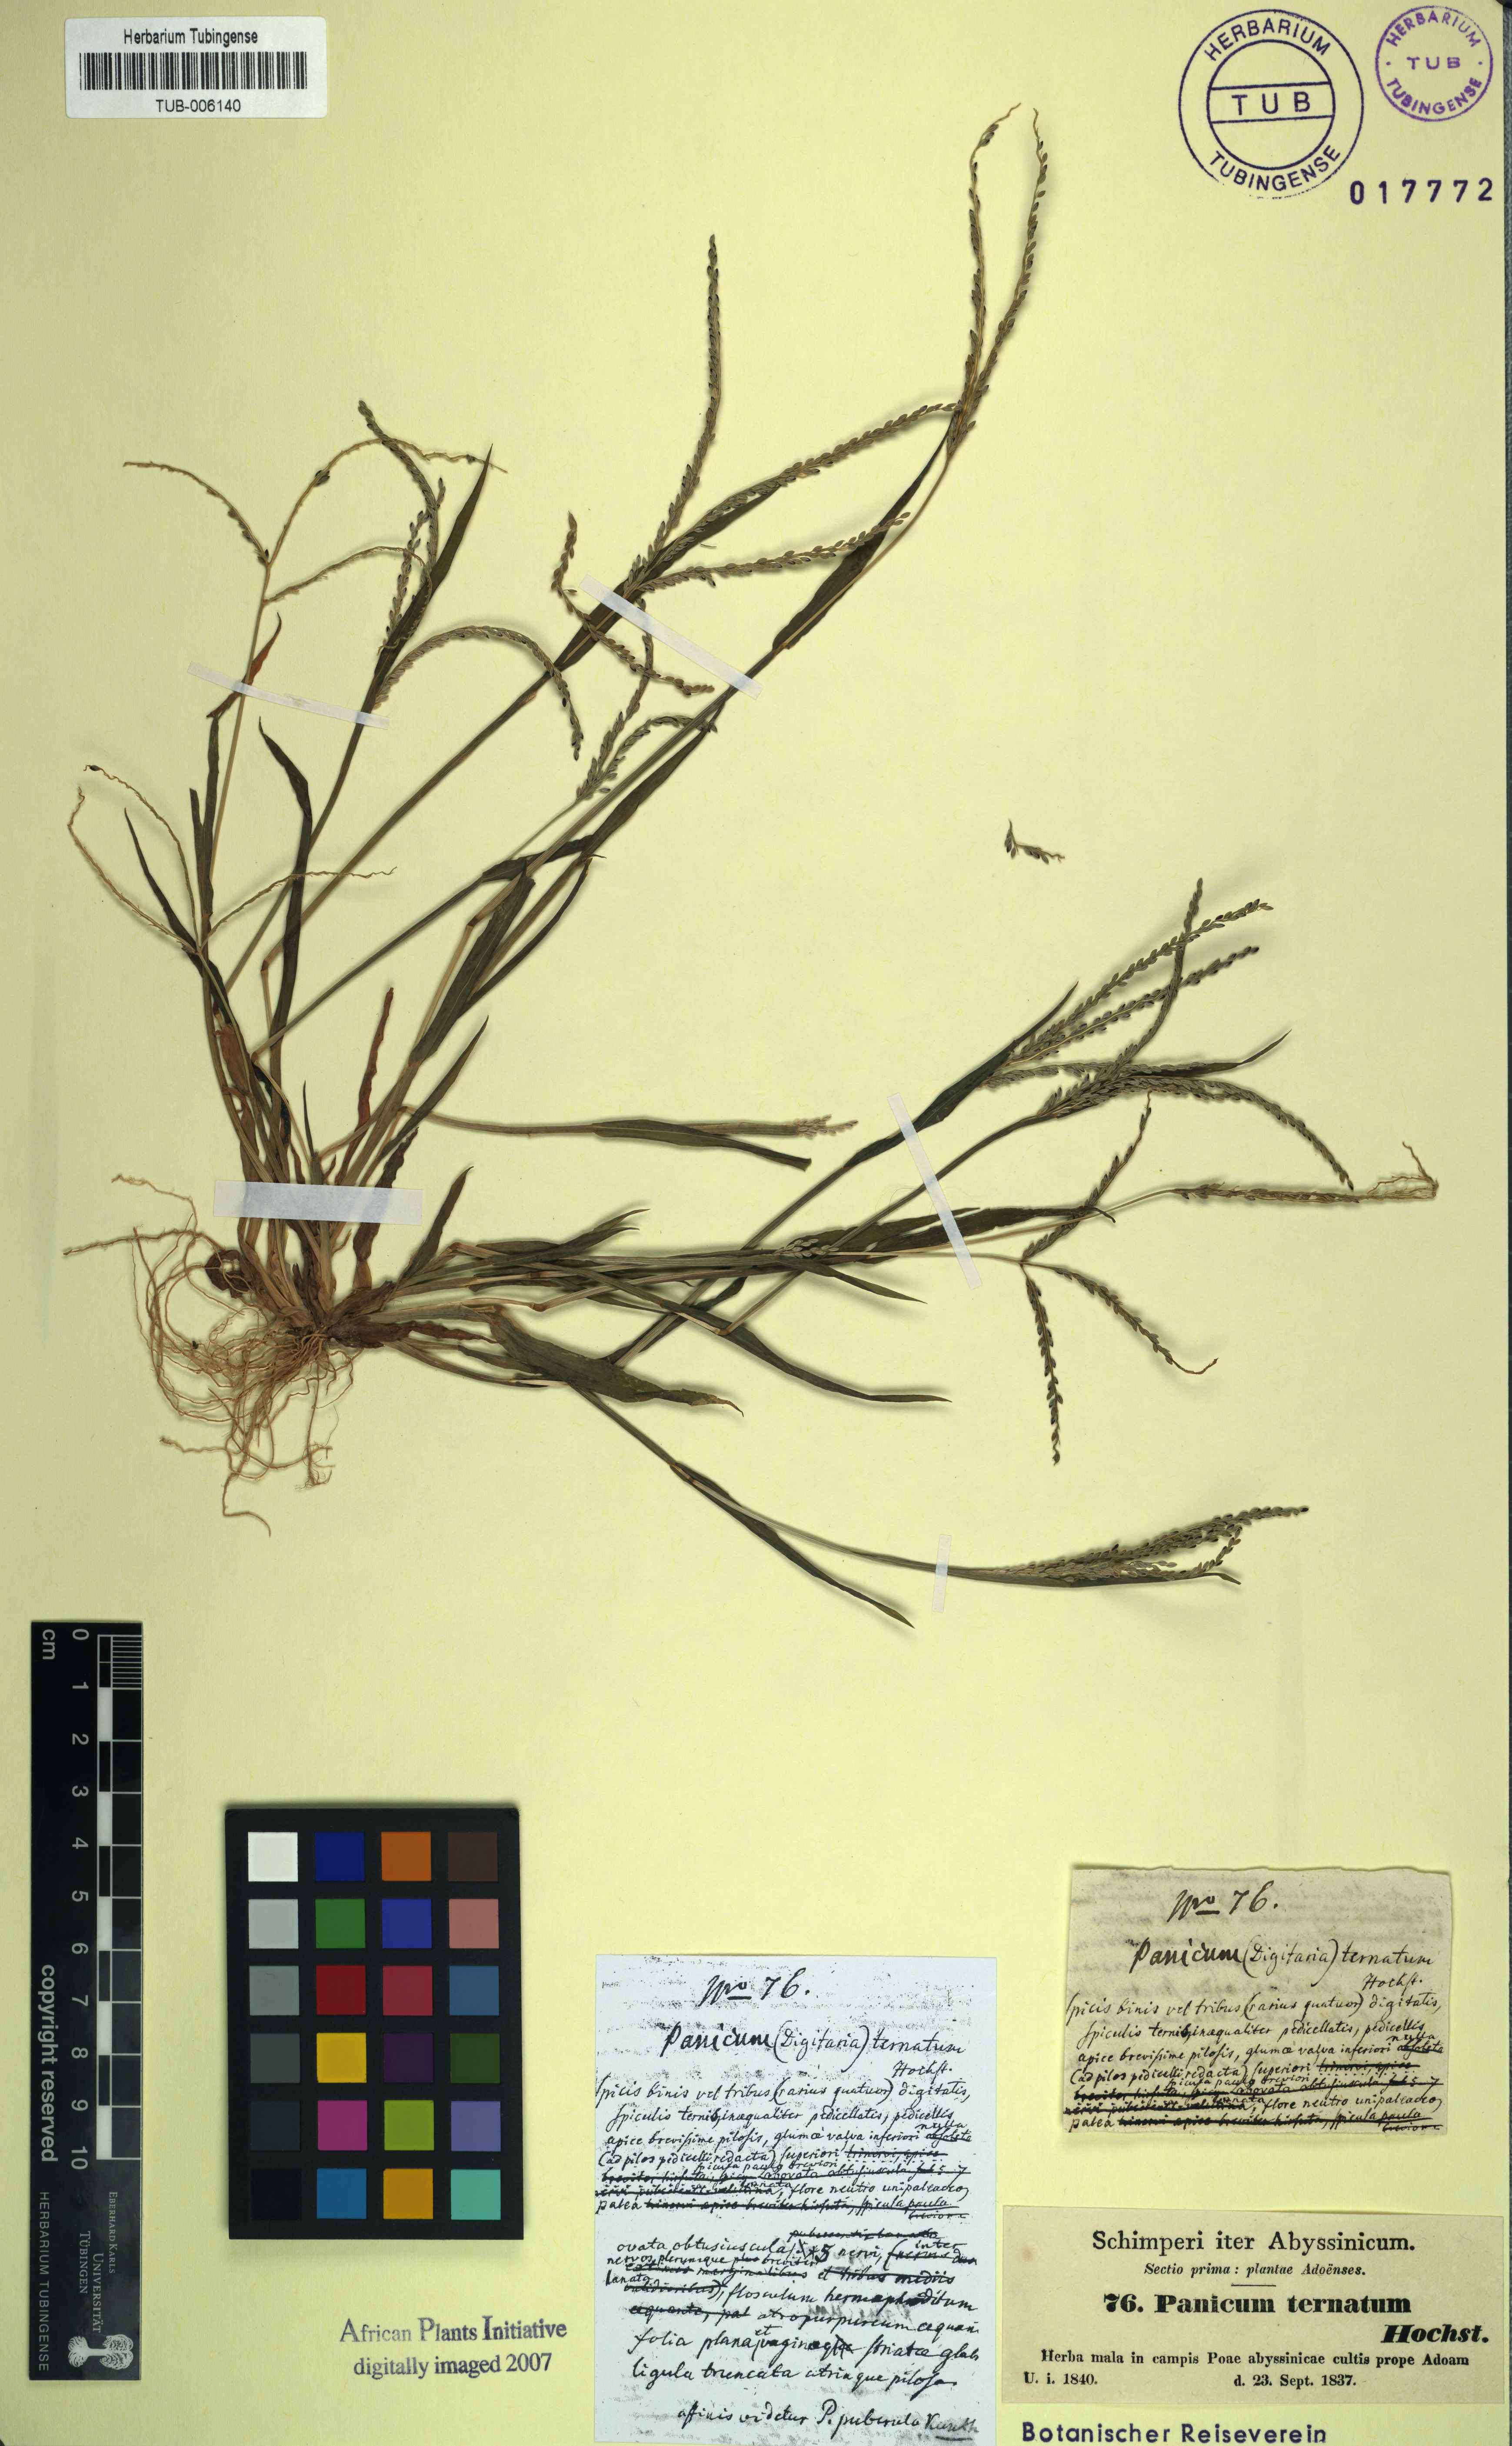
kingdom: Plantae
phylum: Tracheophyta
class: Liliopsida
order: Poales
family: Poaceae
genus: Digitaria
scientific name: Digitaria ischaemum
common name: Smooth crabgrass
